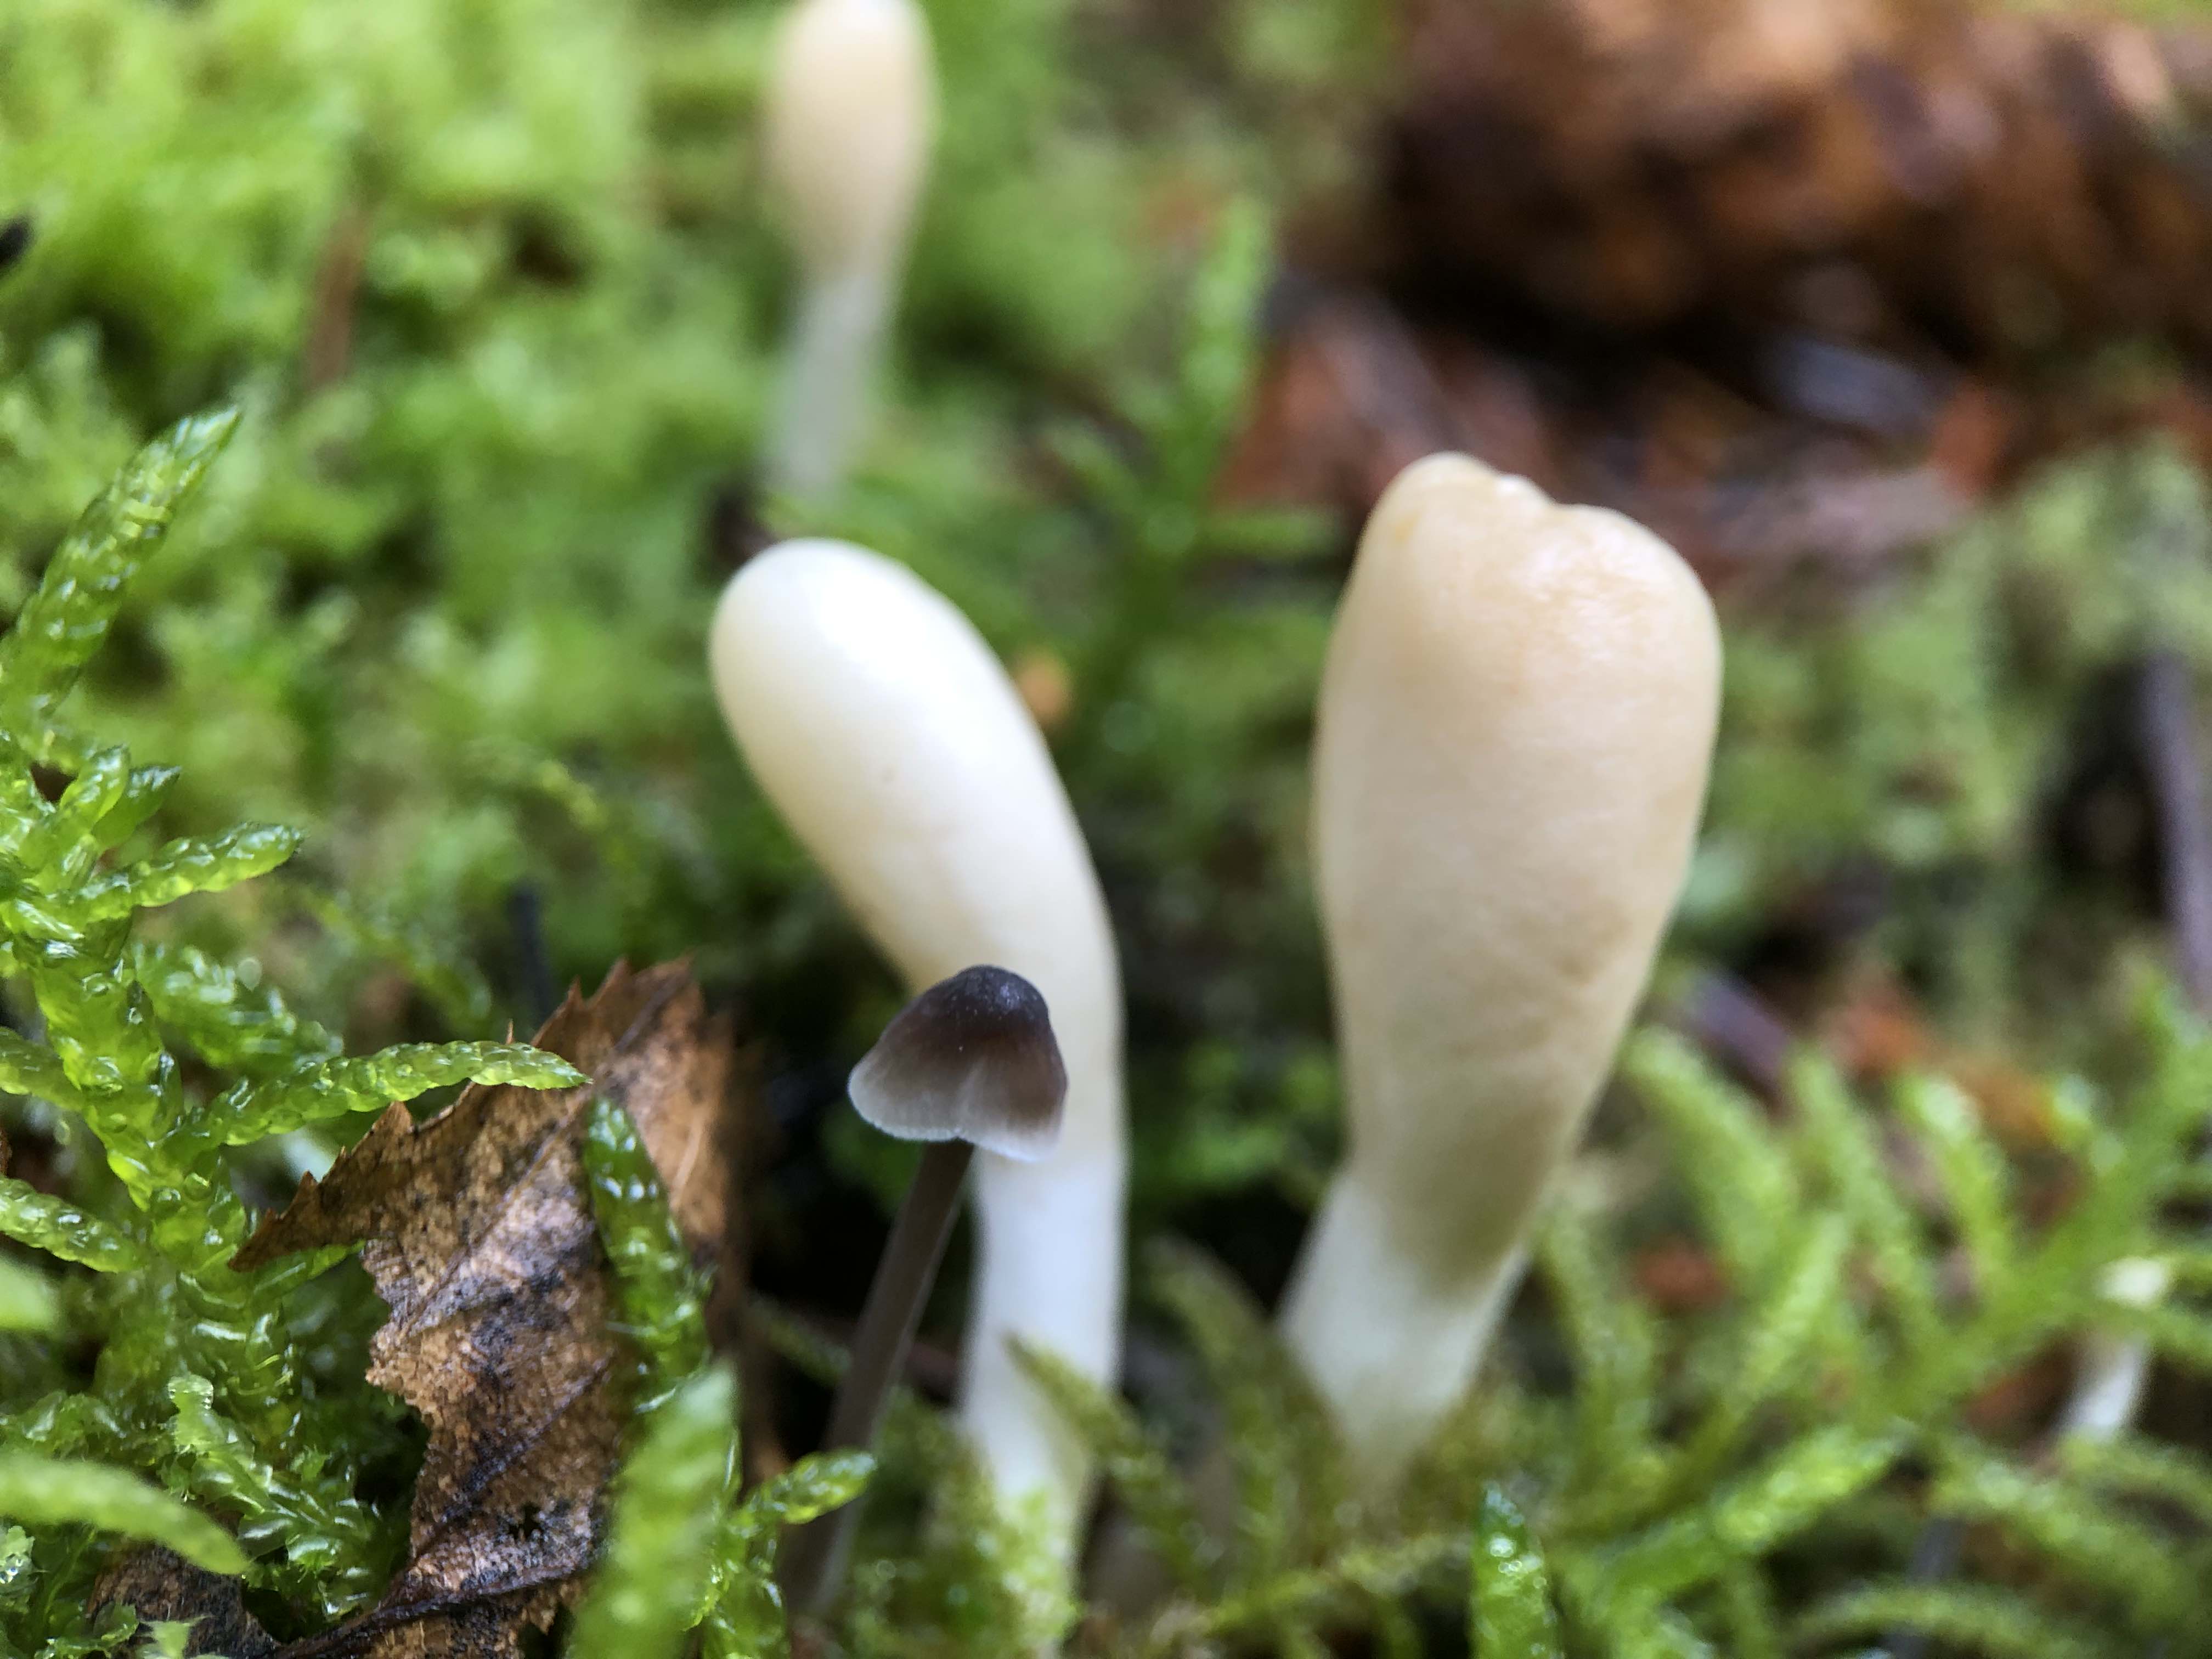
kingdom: Fungi
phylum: Ascomycota
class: Sordariomycetes
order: Hypocreales
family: Hypocreaceae
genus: Trichoderma
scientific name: Trichoderma leucopus
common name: lysstokket kødkerne
